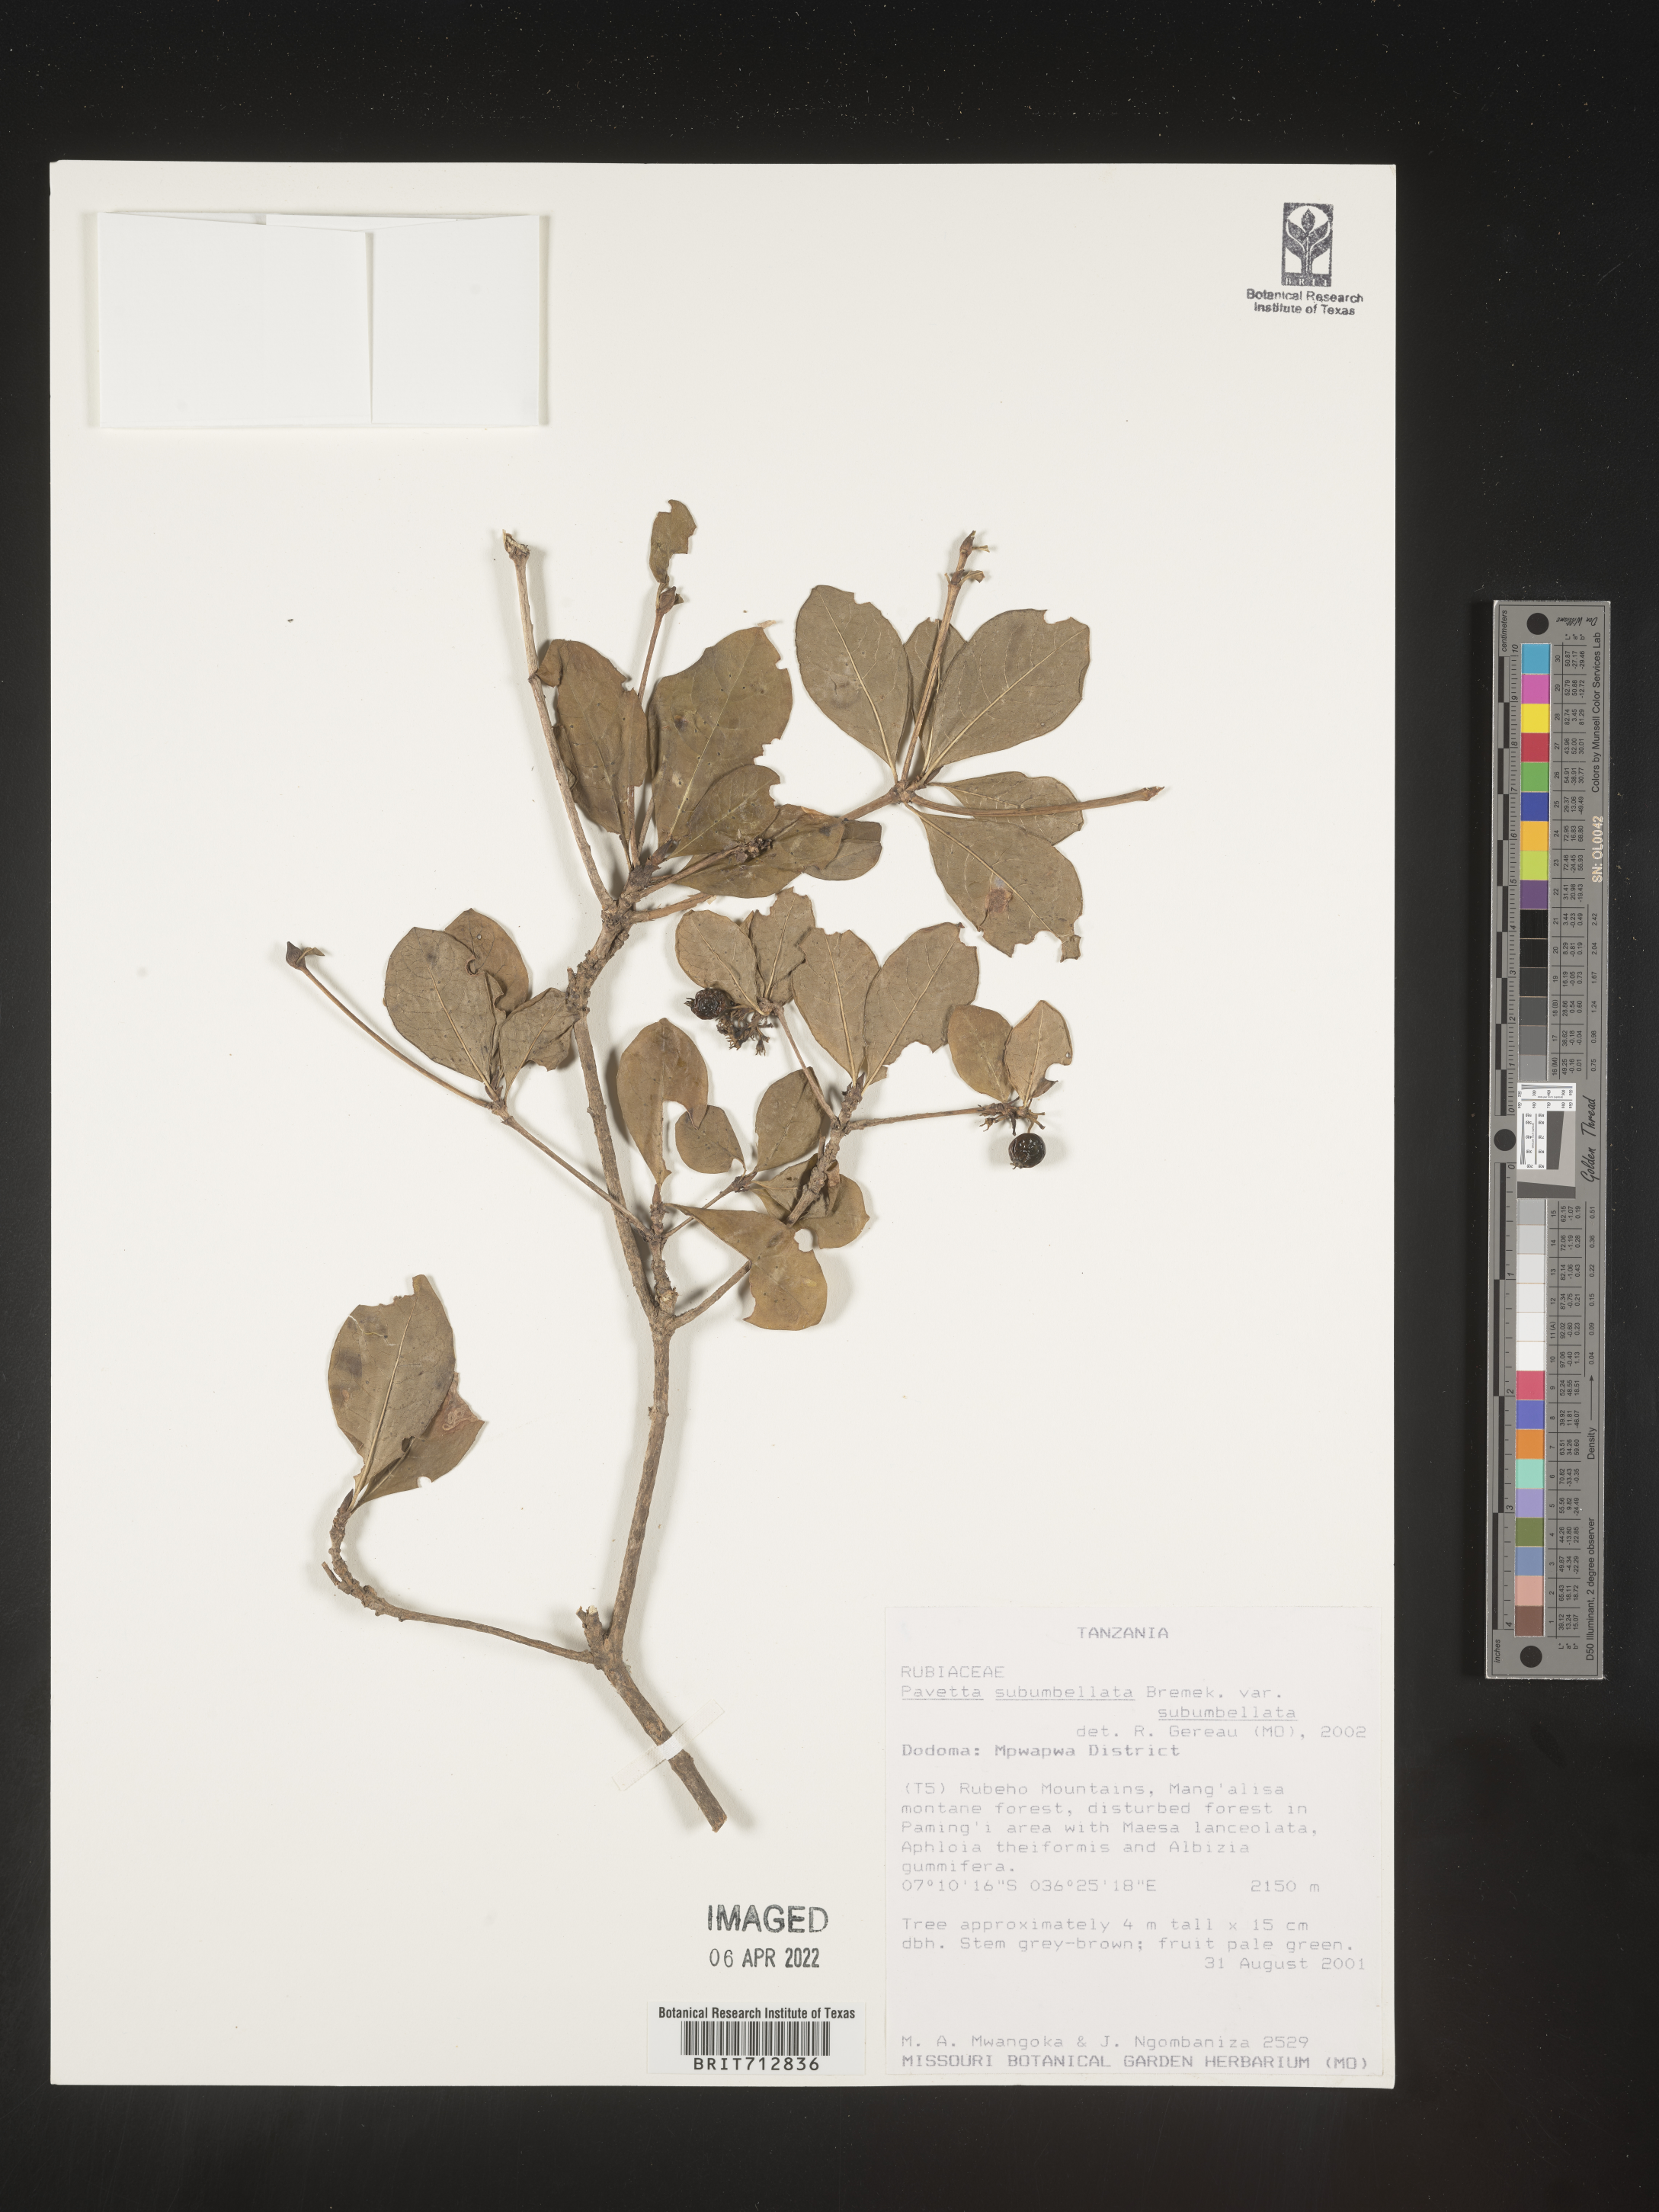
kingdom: Plantae
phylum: Tracheophyta
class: Magnoliopsida
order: Gentianales
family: Rubiaceae
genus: Pavetta
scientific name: Pavetta
